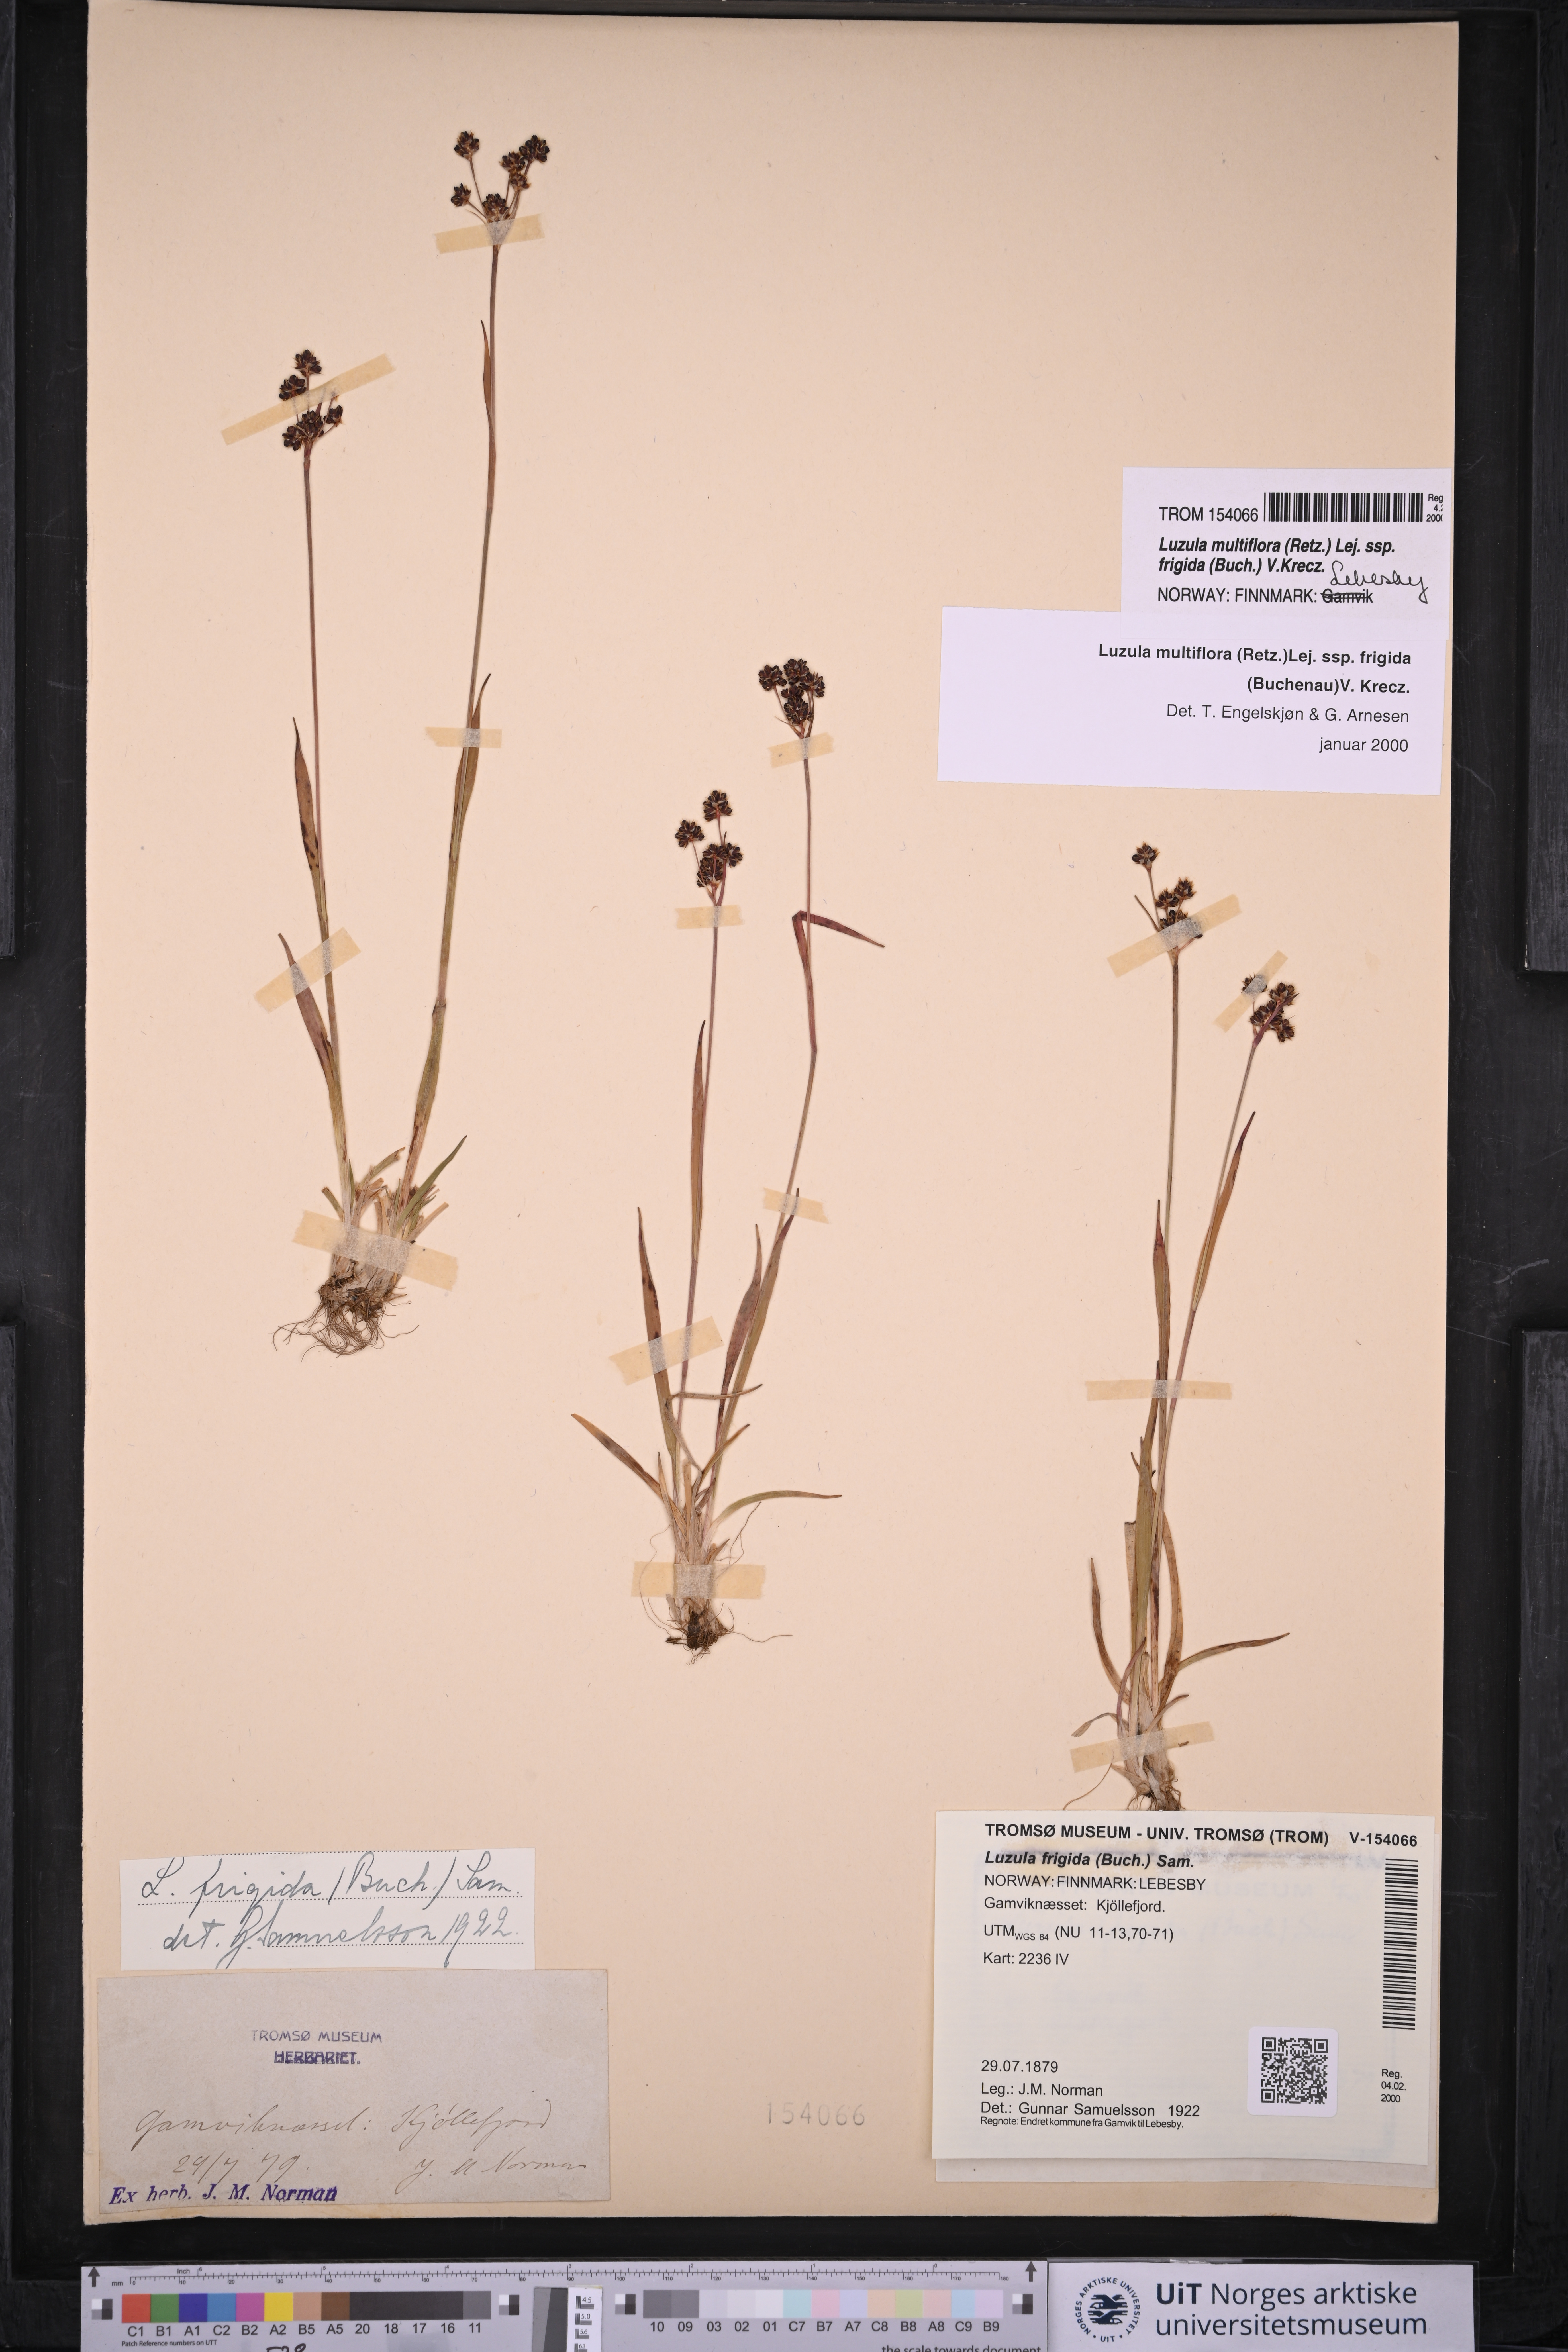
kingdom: Plantae
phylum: Tracheophyta
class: Liliopsida
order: Poales
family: Juncaceae
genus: Luzula
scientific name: Luzula multiflora
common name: Heath wood-rush
